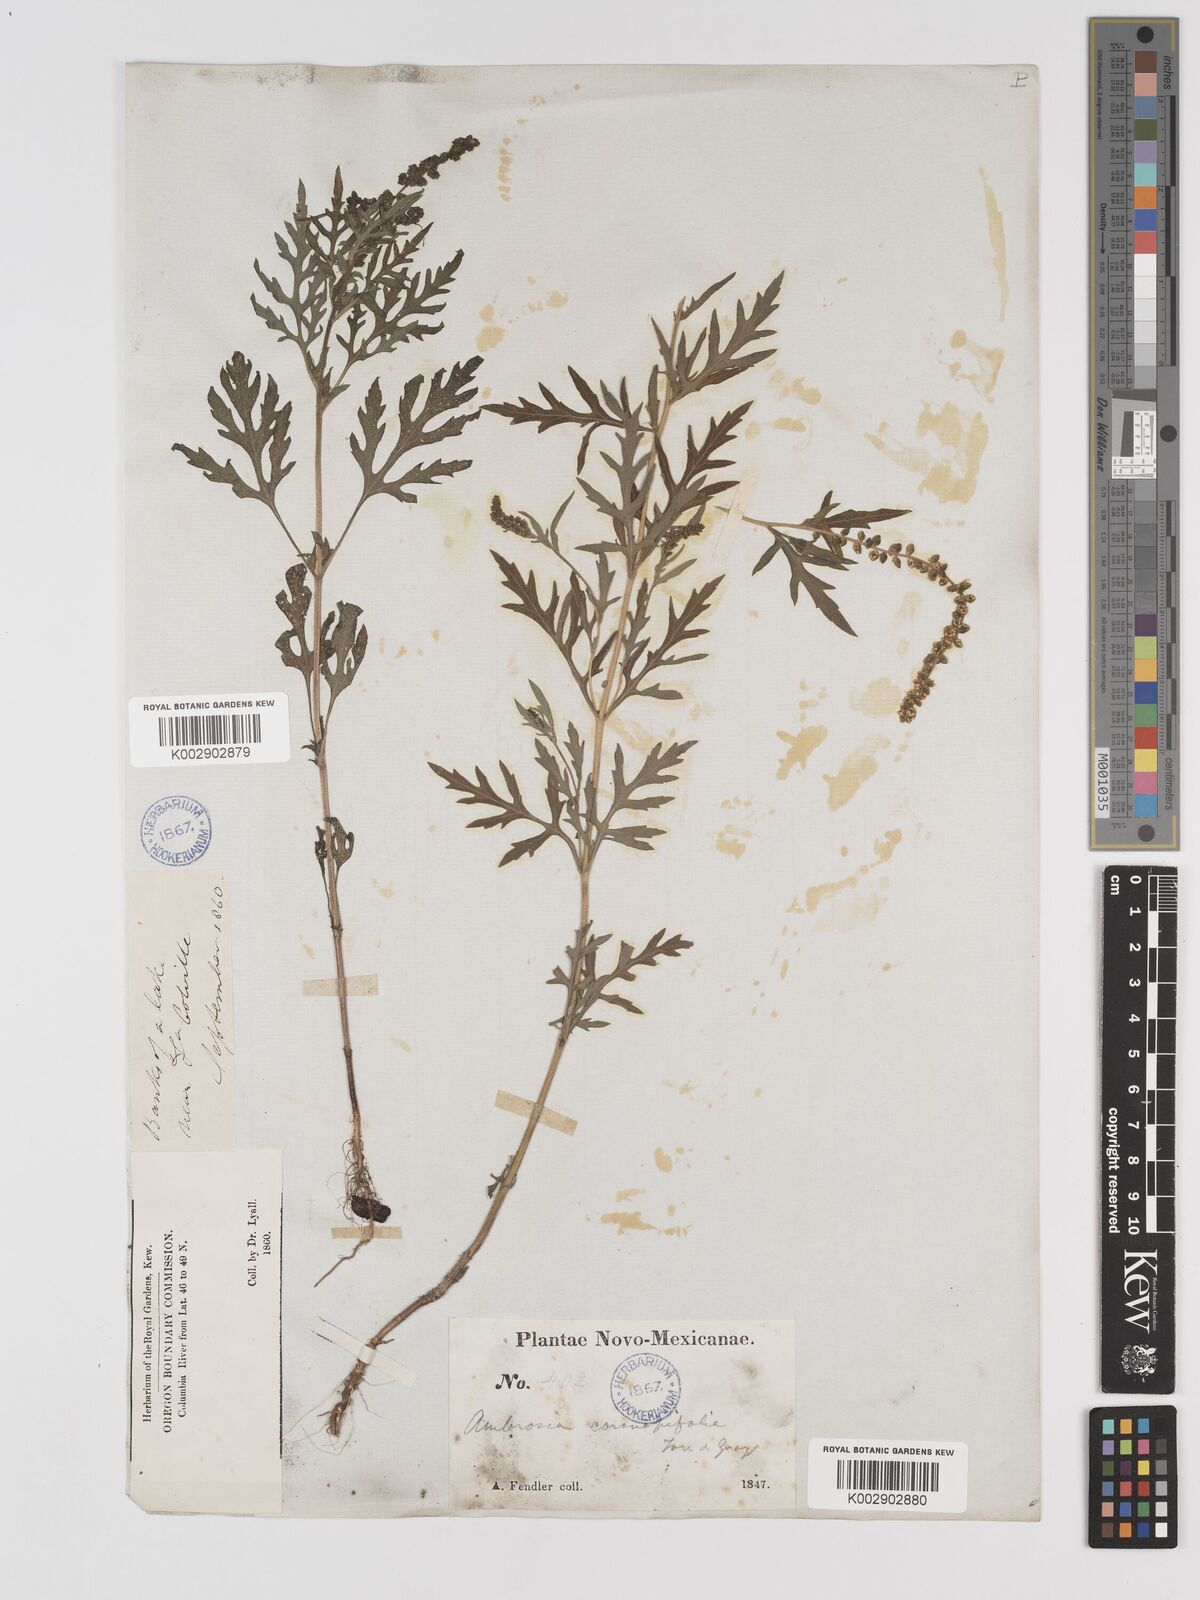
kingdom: Plantae
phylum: Tracheophyta
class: Magnoliopsida
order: Asterales
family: Asteraceae
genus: Ambrosia
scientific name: Ambrosia psilostachya
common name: Perennial ragweed
